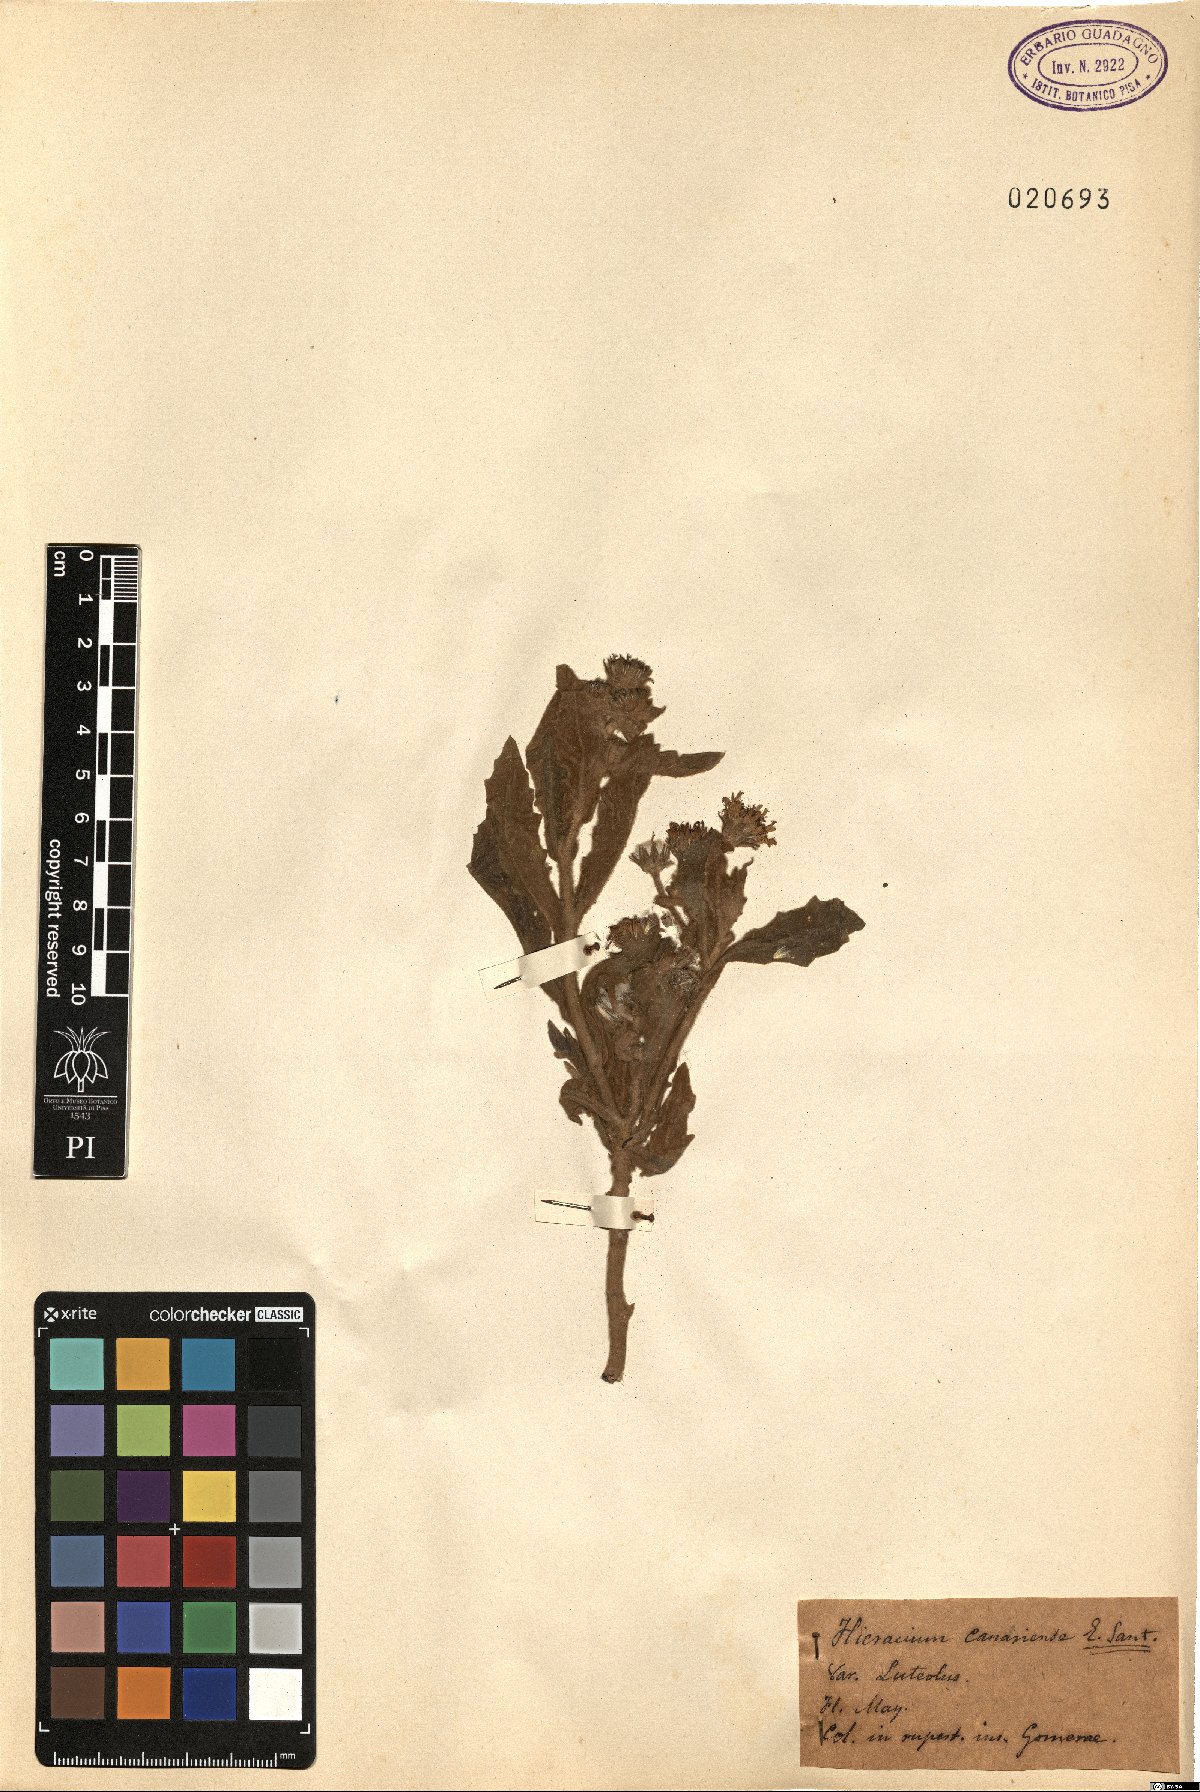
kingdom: Plantae
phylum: Tracheophyta
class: Magnoliopsida
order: Asterales
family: Asteraceae
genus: Hieracium
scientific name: Hieracium
